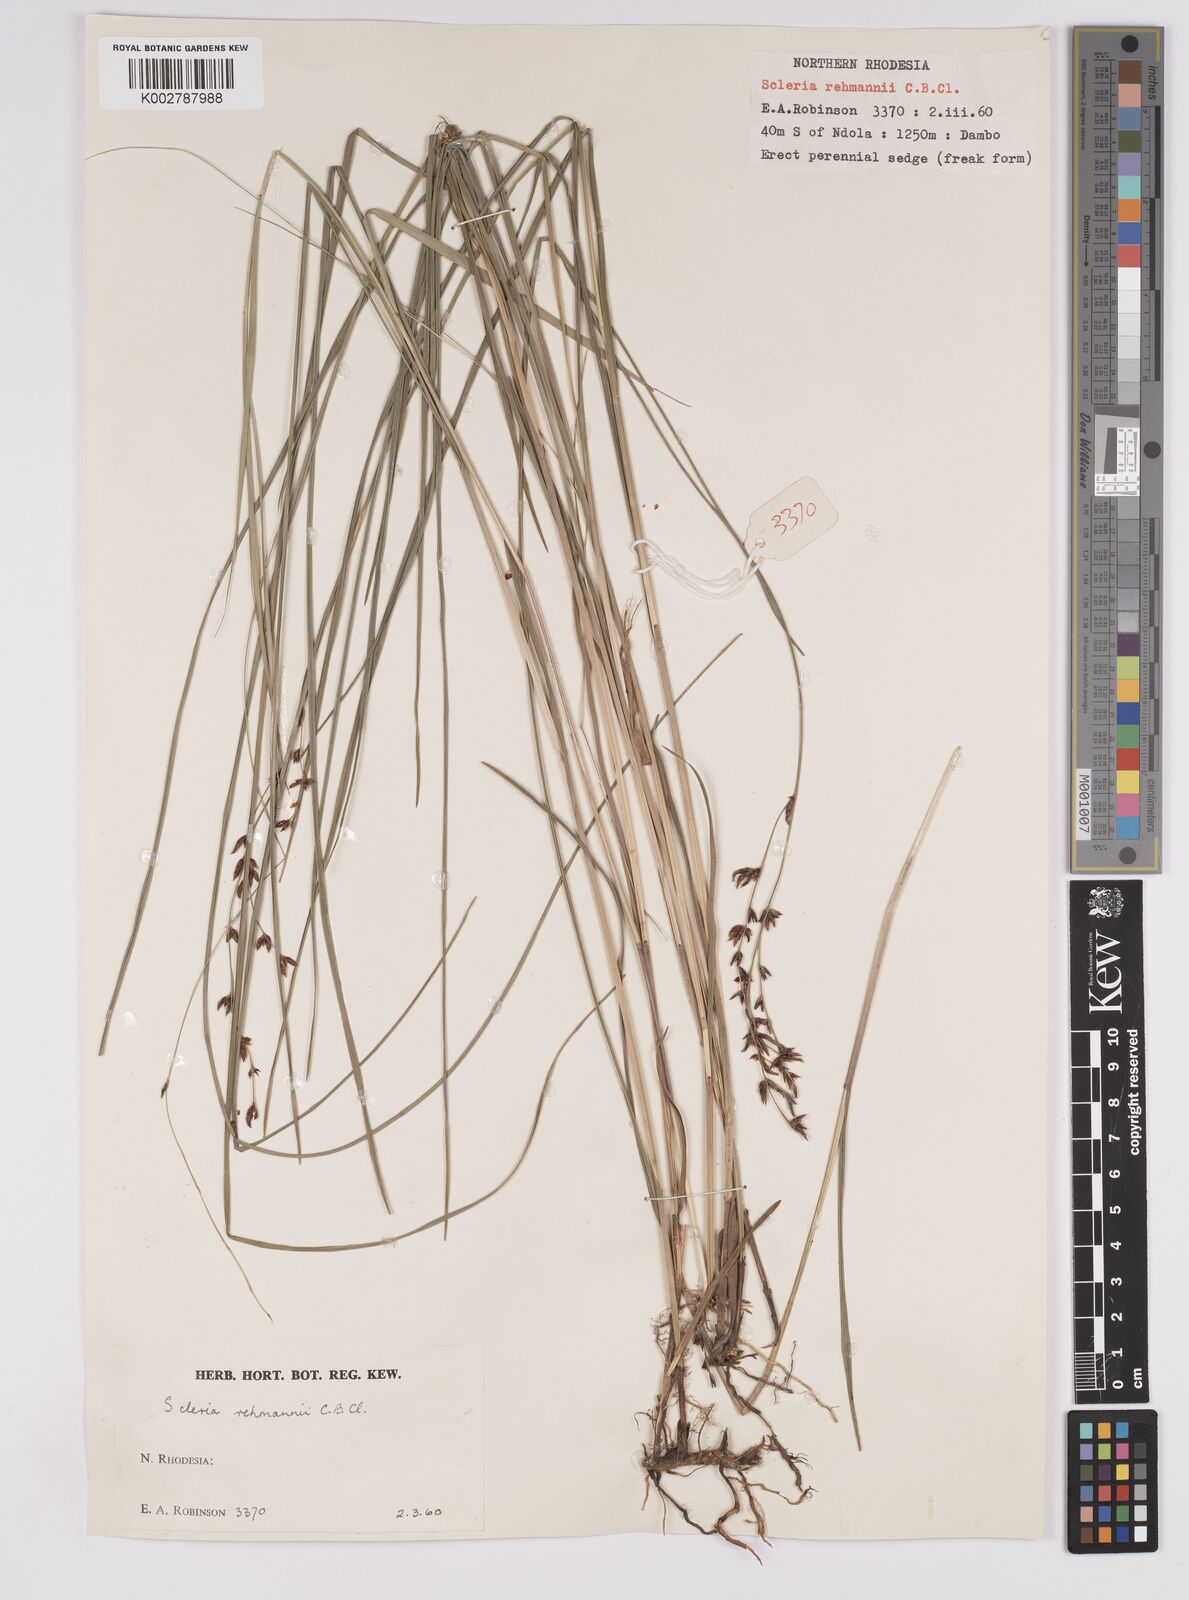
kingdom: Plantae
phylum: Tracheophyta
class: Liliopsida
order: Poales
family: Cyperaceae
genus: Scleria
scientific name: Scleria rehmannii
